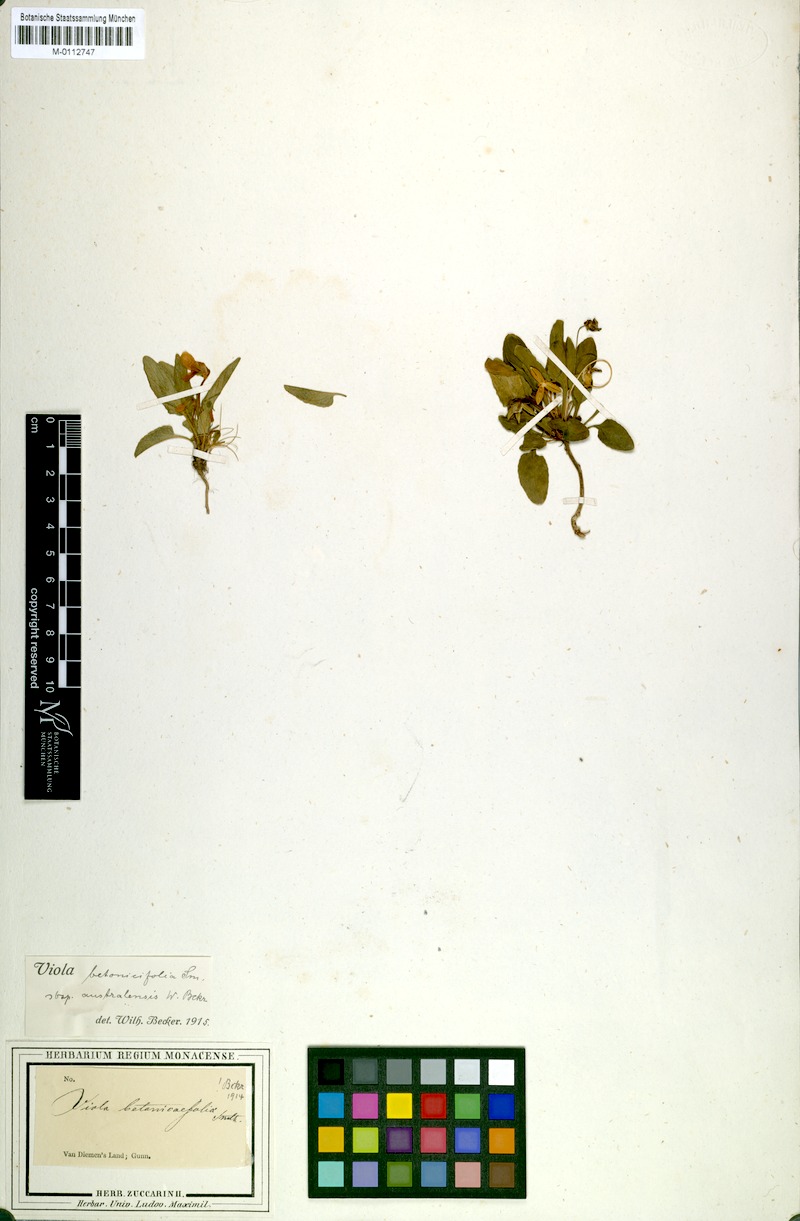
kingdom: Plantae
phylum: Tracheophyta
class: Magnoliopsida
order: Malpighiales
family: Violaceae
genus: Viola
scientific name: Viola betonicifolia
